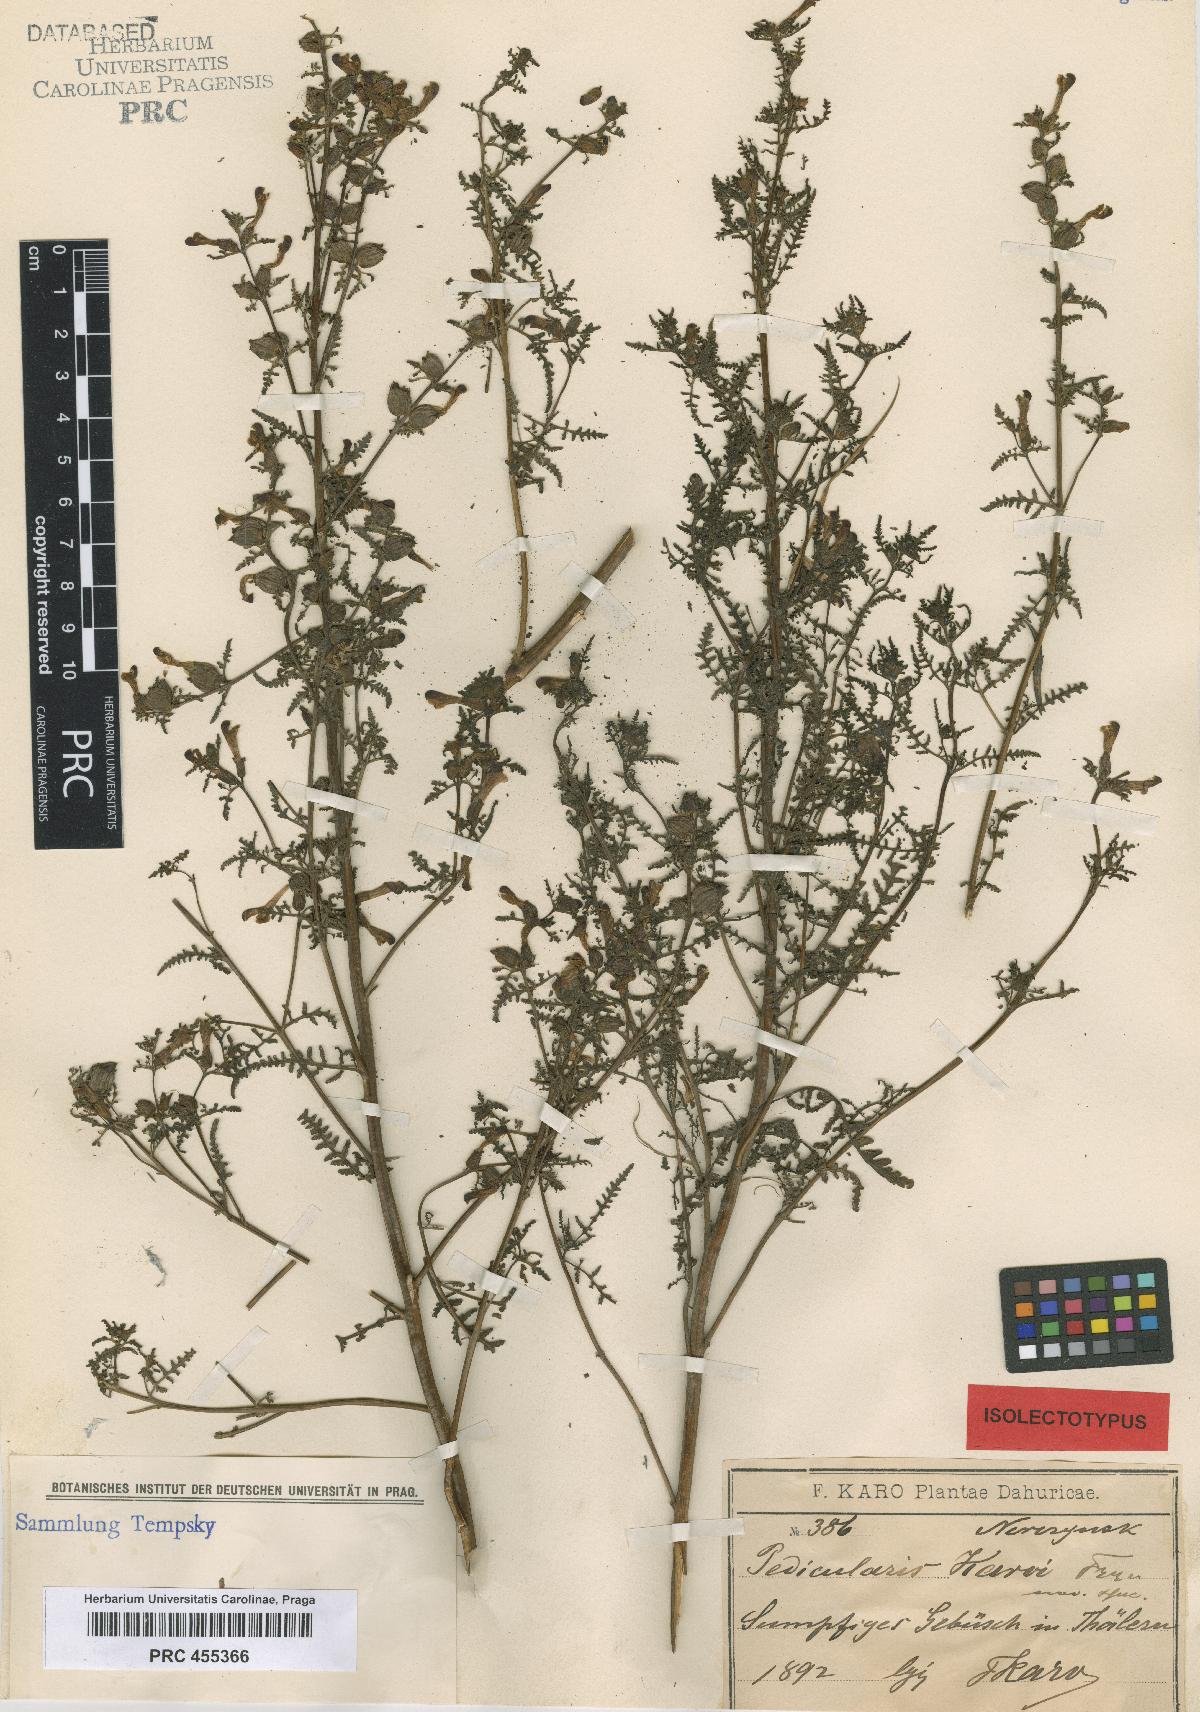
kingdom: Plantae
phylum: Tracheophyta
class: Magnoliopsida
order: Lamiales
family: Orobanchaceae
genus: Pedicularis
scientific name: Pedicularis karoi
